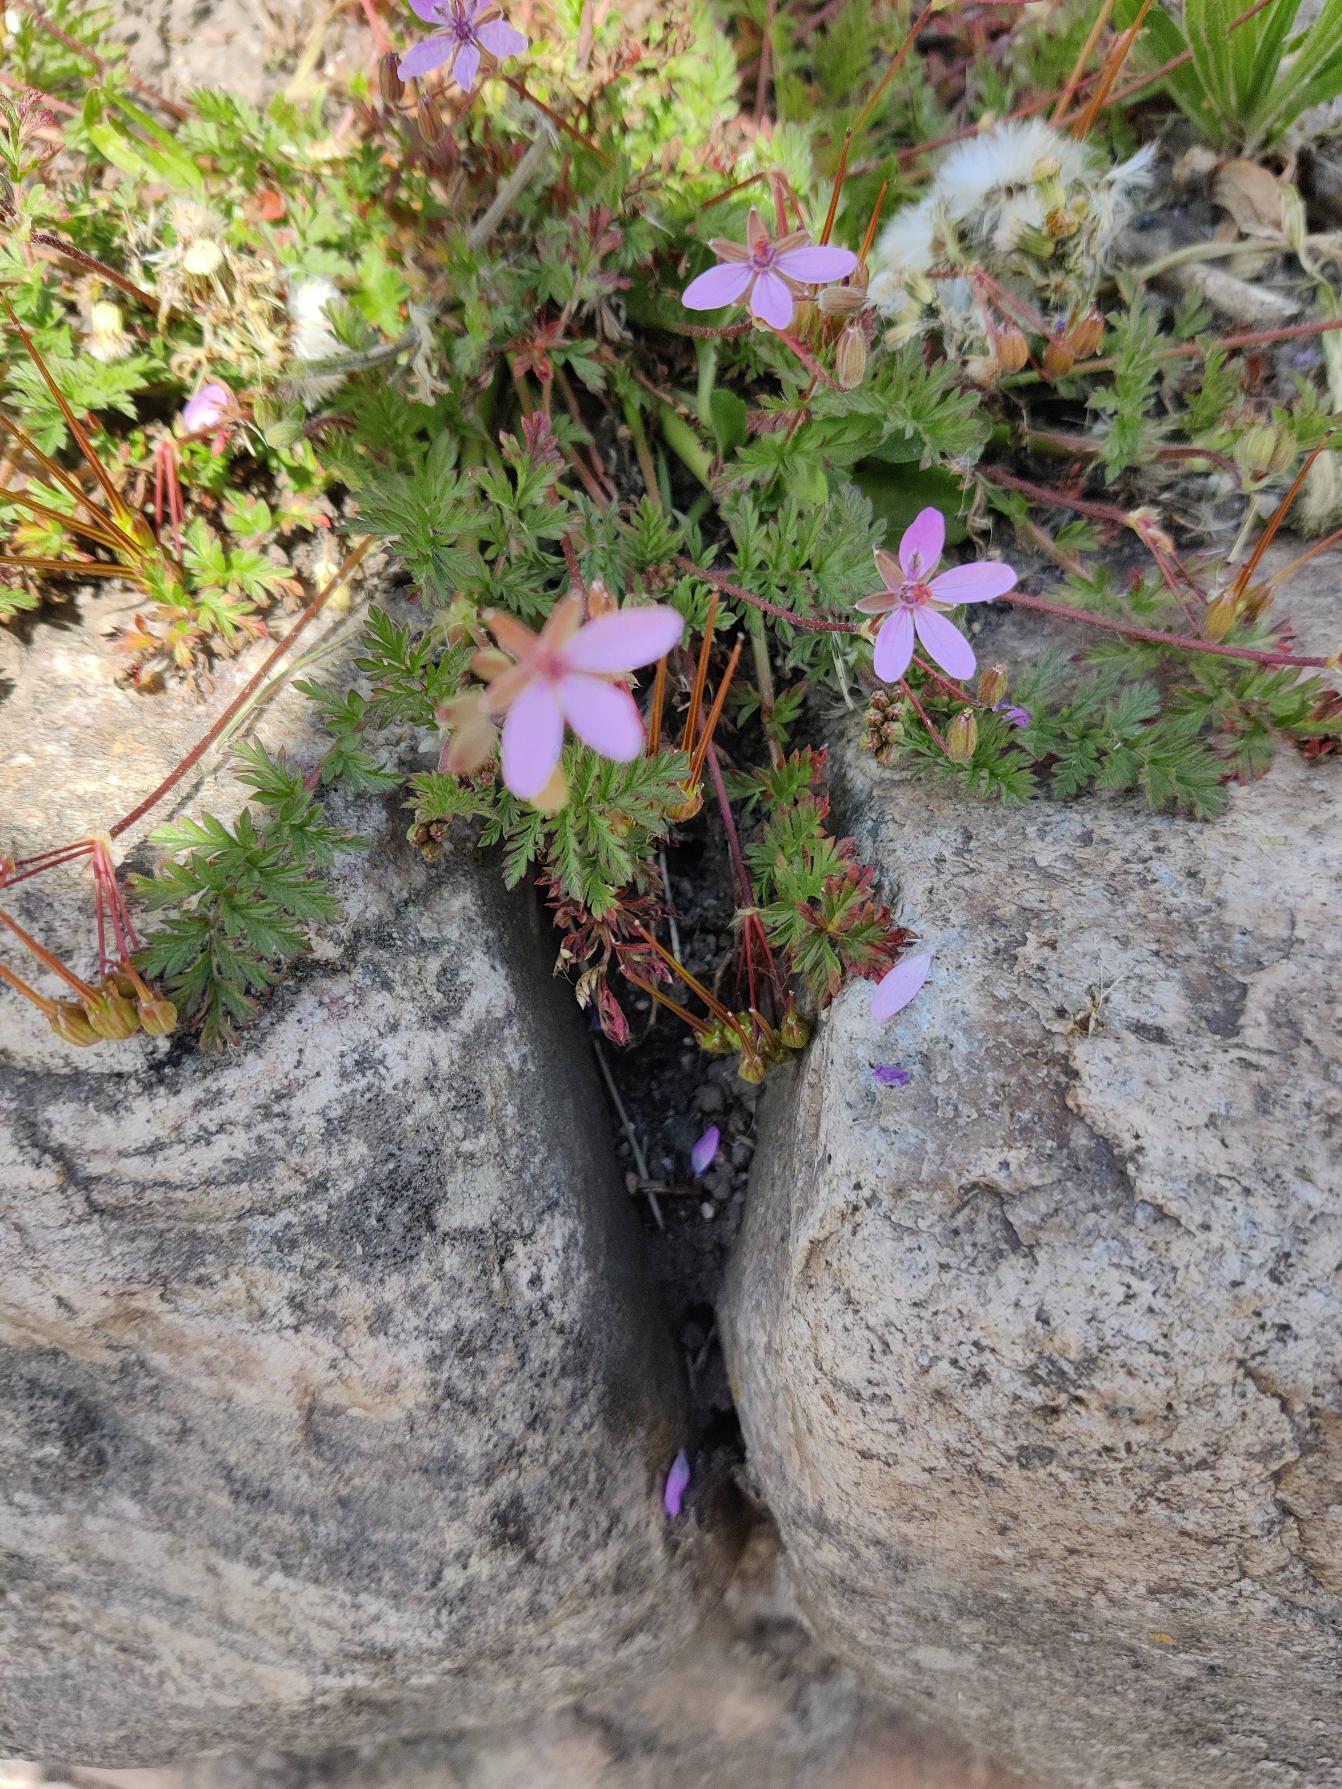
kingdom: Plantae
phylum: Tracheophyta
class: Magnoliopsida
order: Geraniales
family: Geraniaceae
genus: Erodium
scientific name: Erodium cicutarium
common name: Hejrenæb
